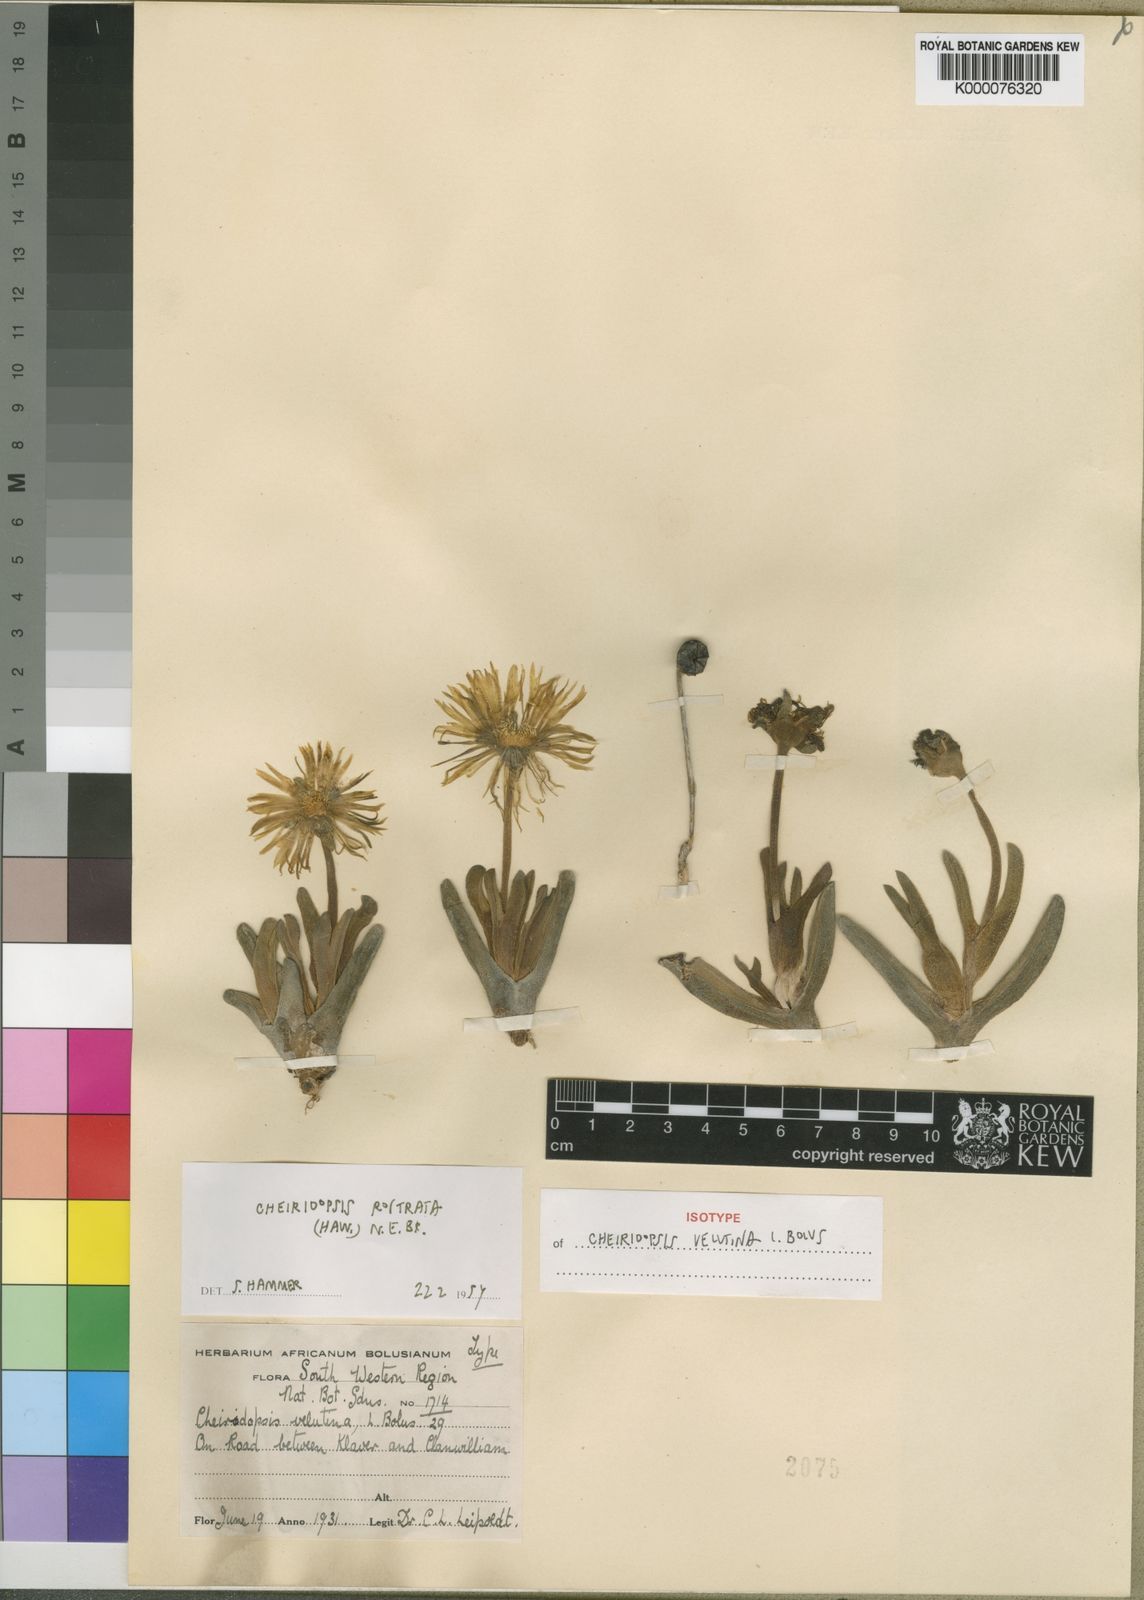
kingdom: Plantae
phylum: Tracheophyta
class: Magnoliopsida
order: Caryophyllales
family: Aizoaceae
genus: Cheiridopsis
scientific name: Cheiridopsis rostrata
